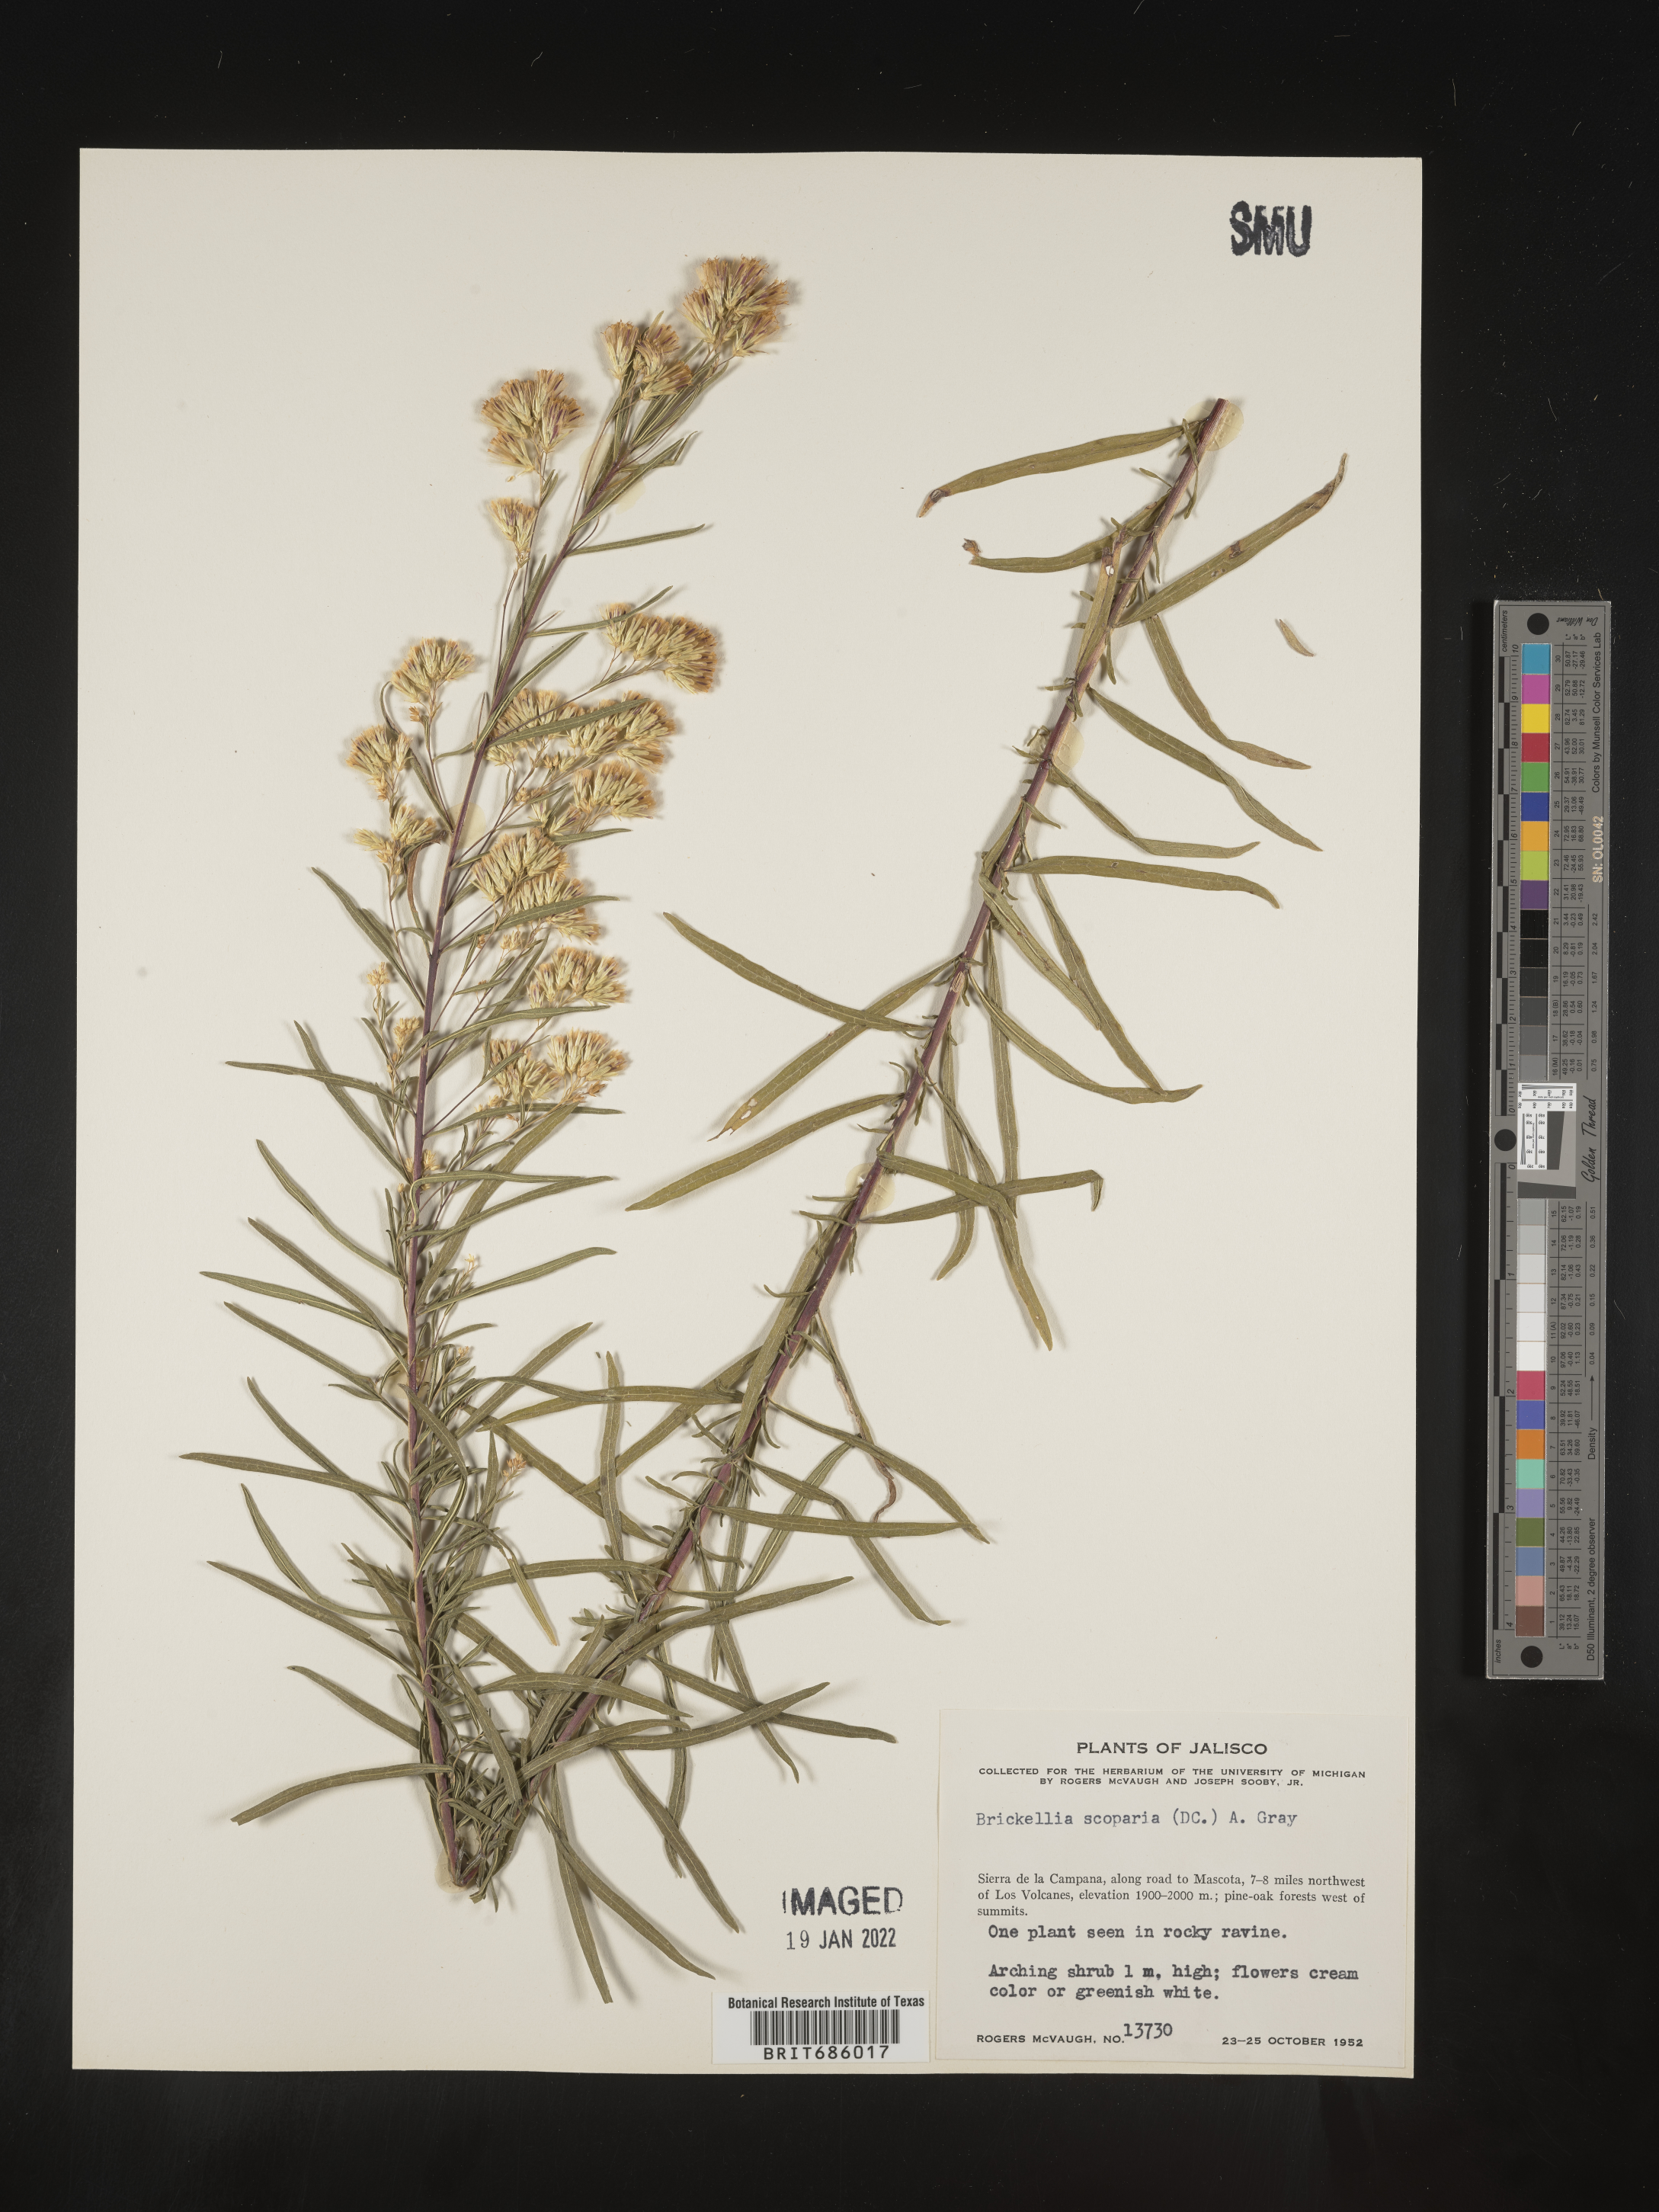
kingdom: Plantae
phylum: Tracheophyta
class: Magnoliopsida
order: Asterales
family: Asteraceae
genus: Brickellia
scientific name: Brickellia
